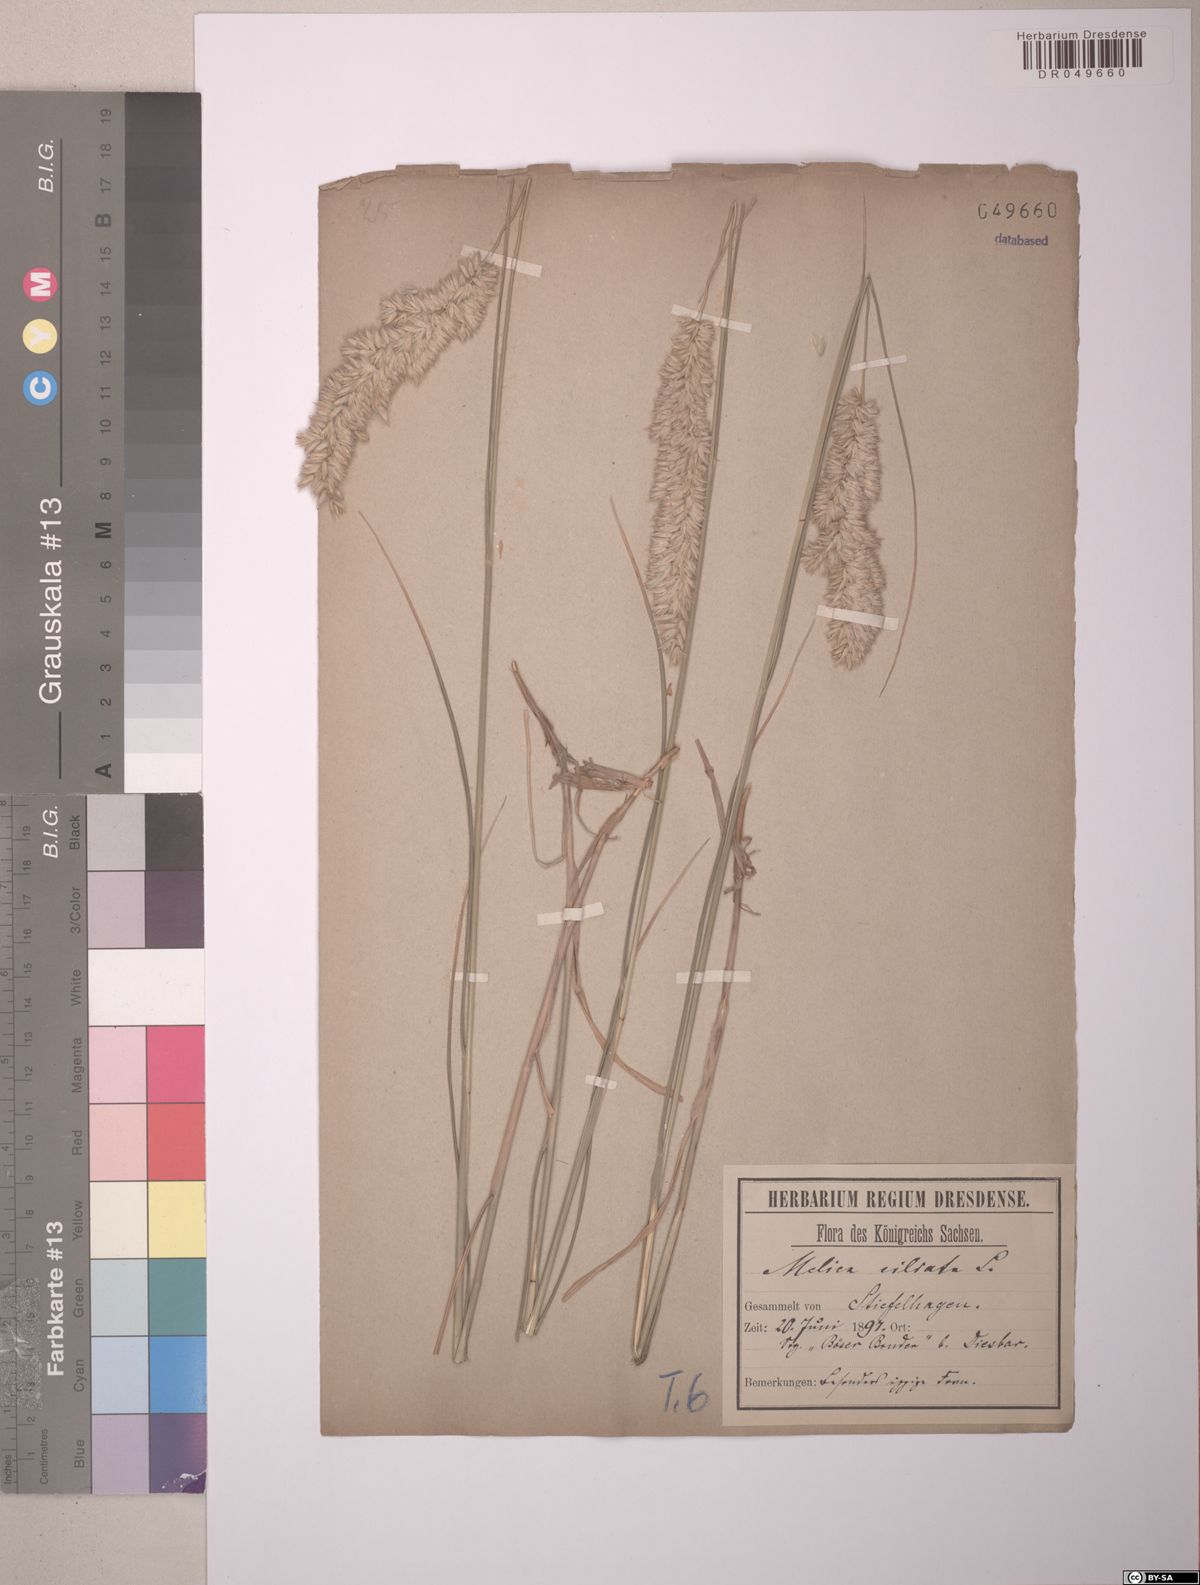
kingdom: Plantae
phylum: Tracheophyta
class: Liliopsida
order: Poales
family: Poaceae
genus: Melica
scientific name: Melica ciliata
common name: Hairy melicgrass
